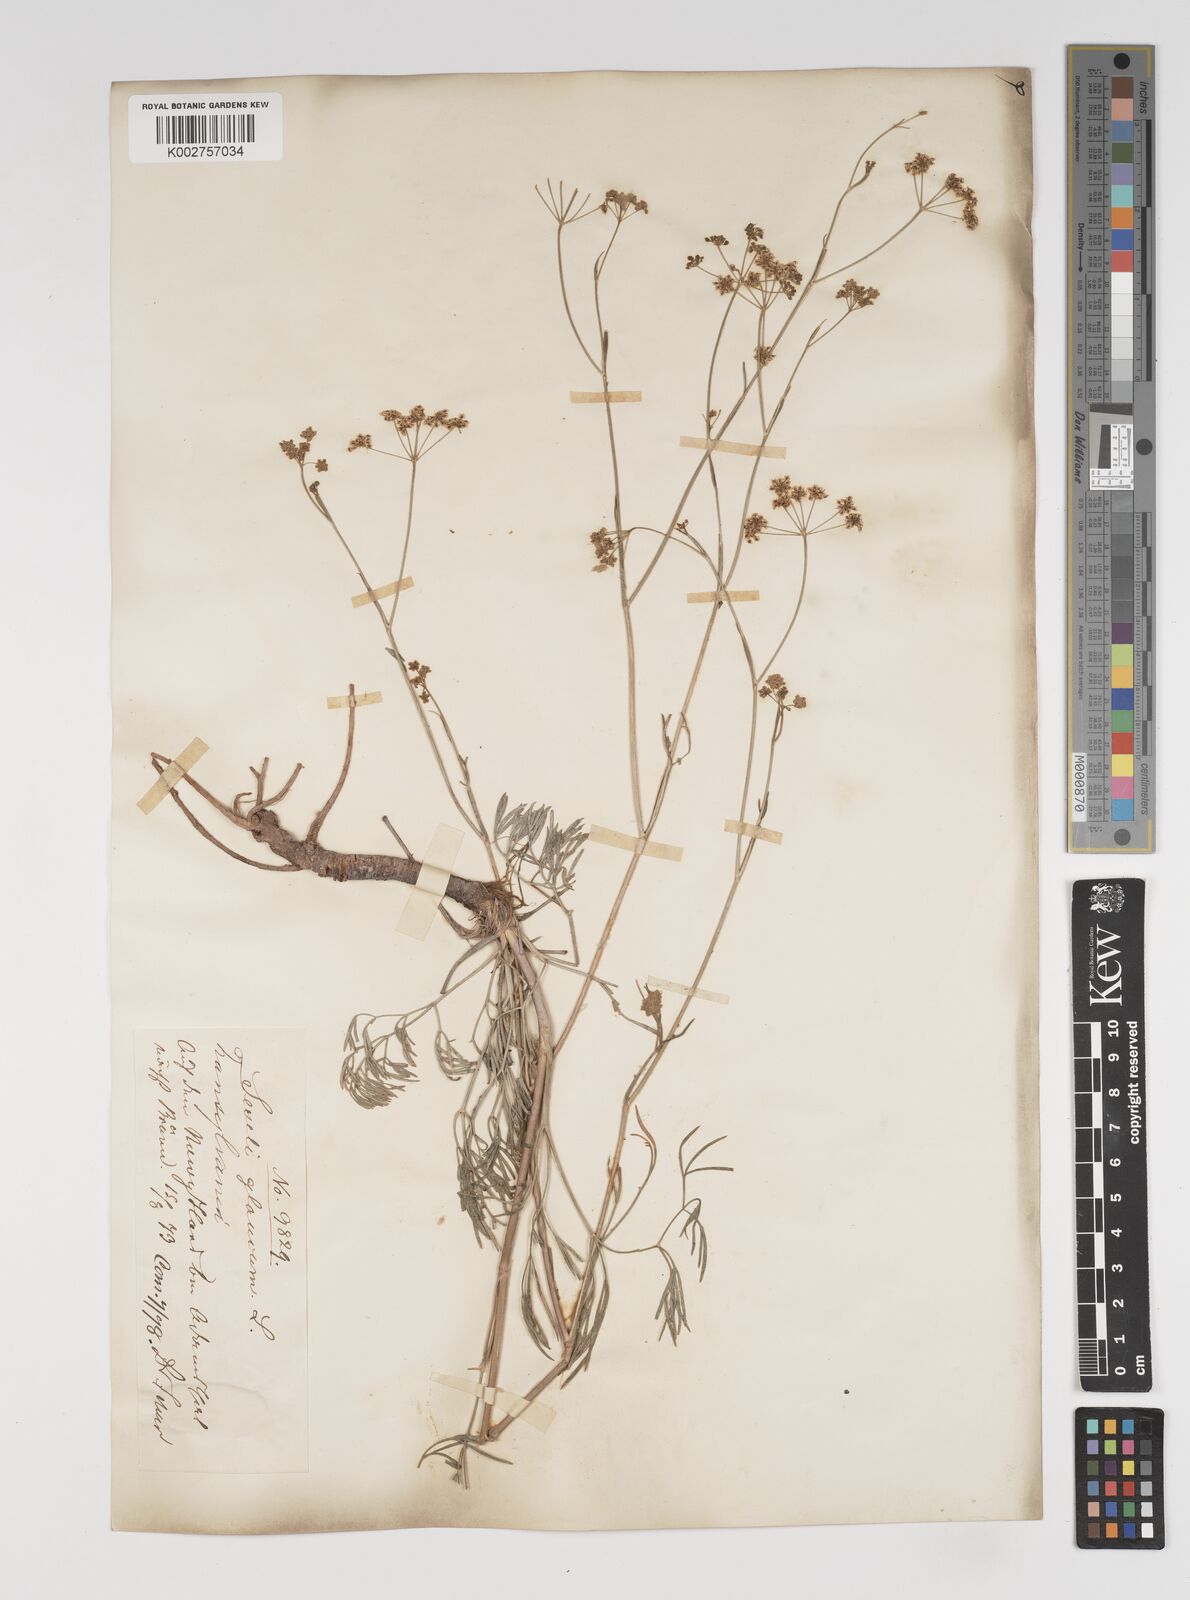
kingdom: Plantae
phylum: Tracheophyta
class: Magnoliopsida
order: Apiales
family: Apiaceae
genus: Seseli
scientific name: Seseli montanum
